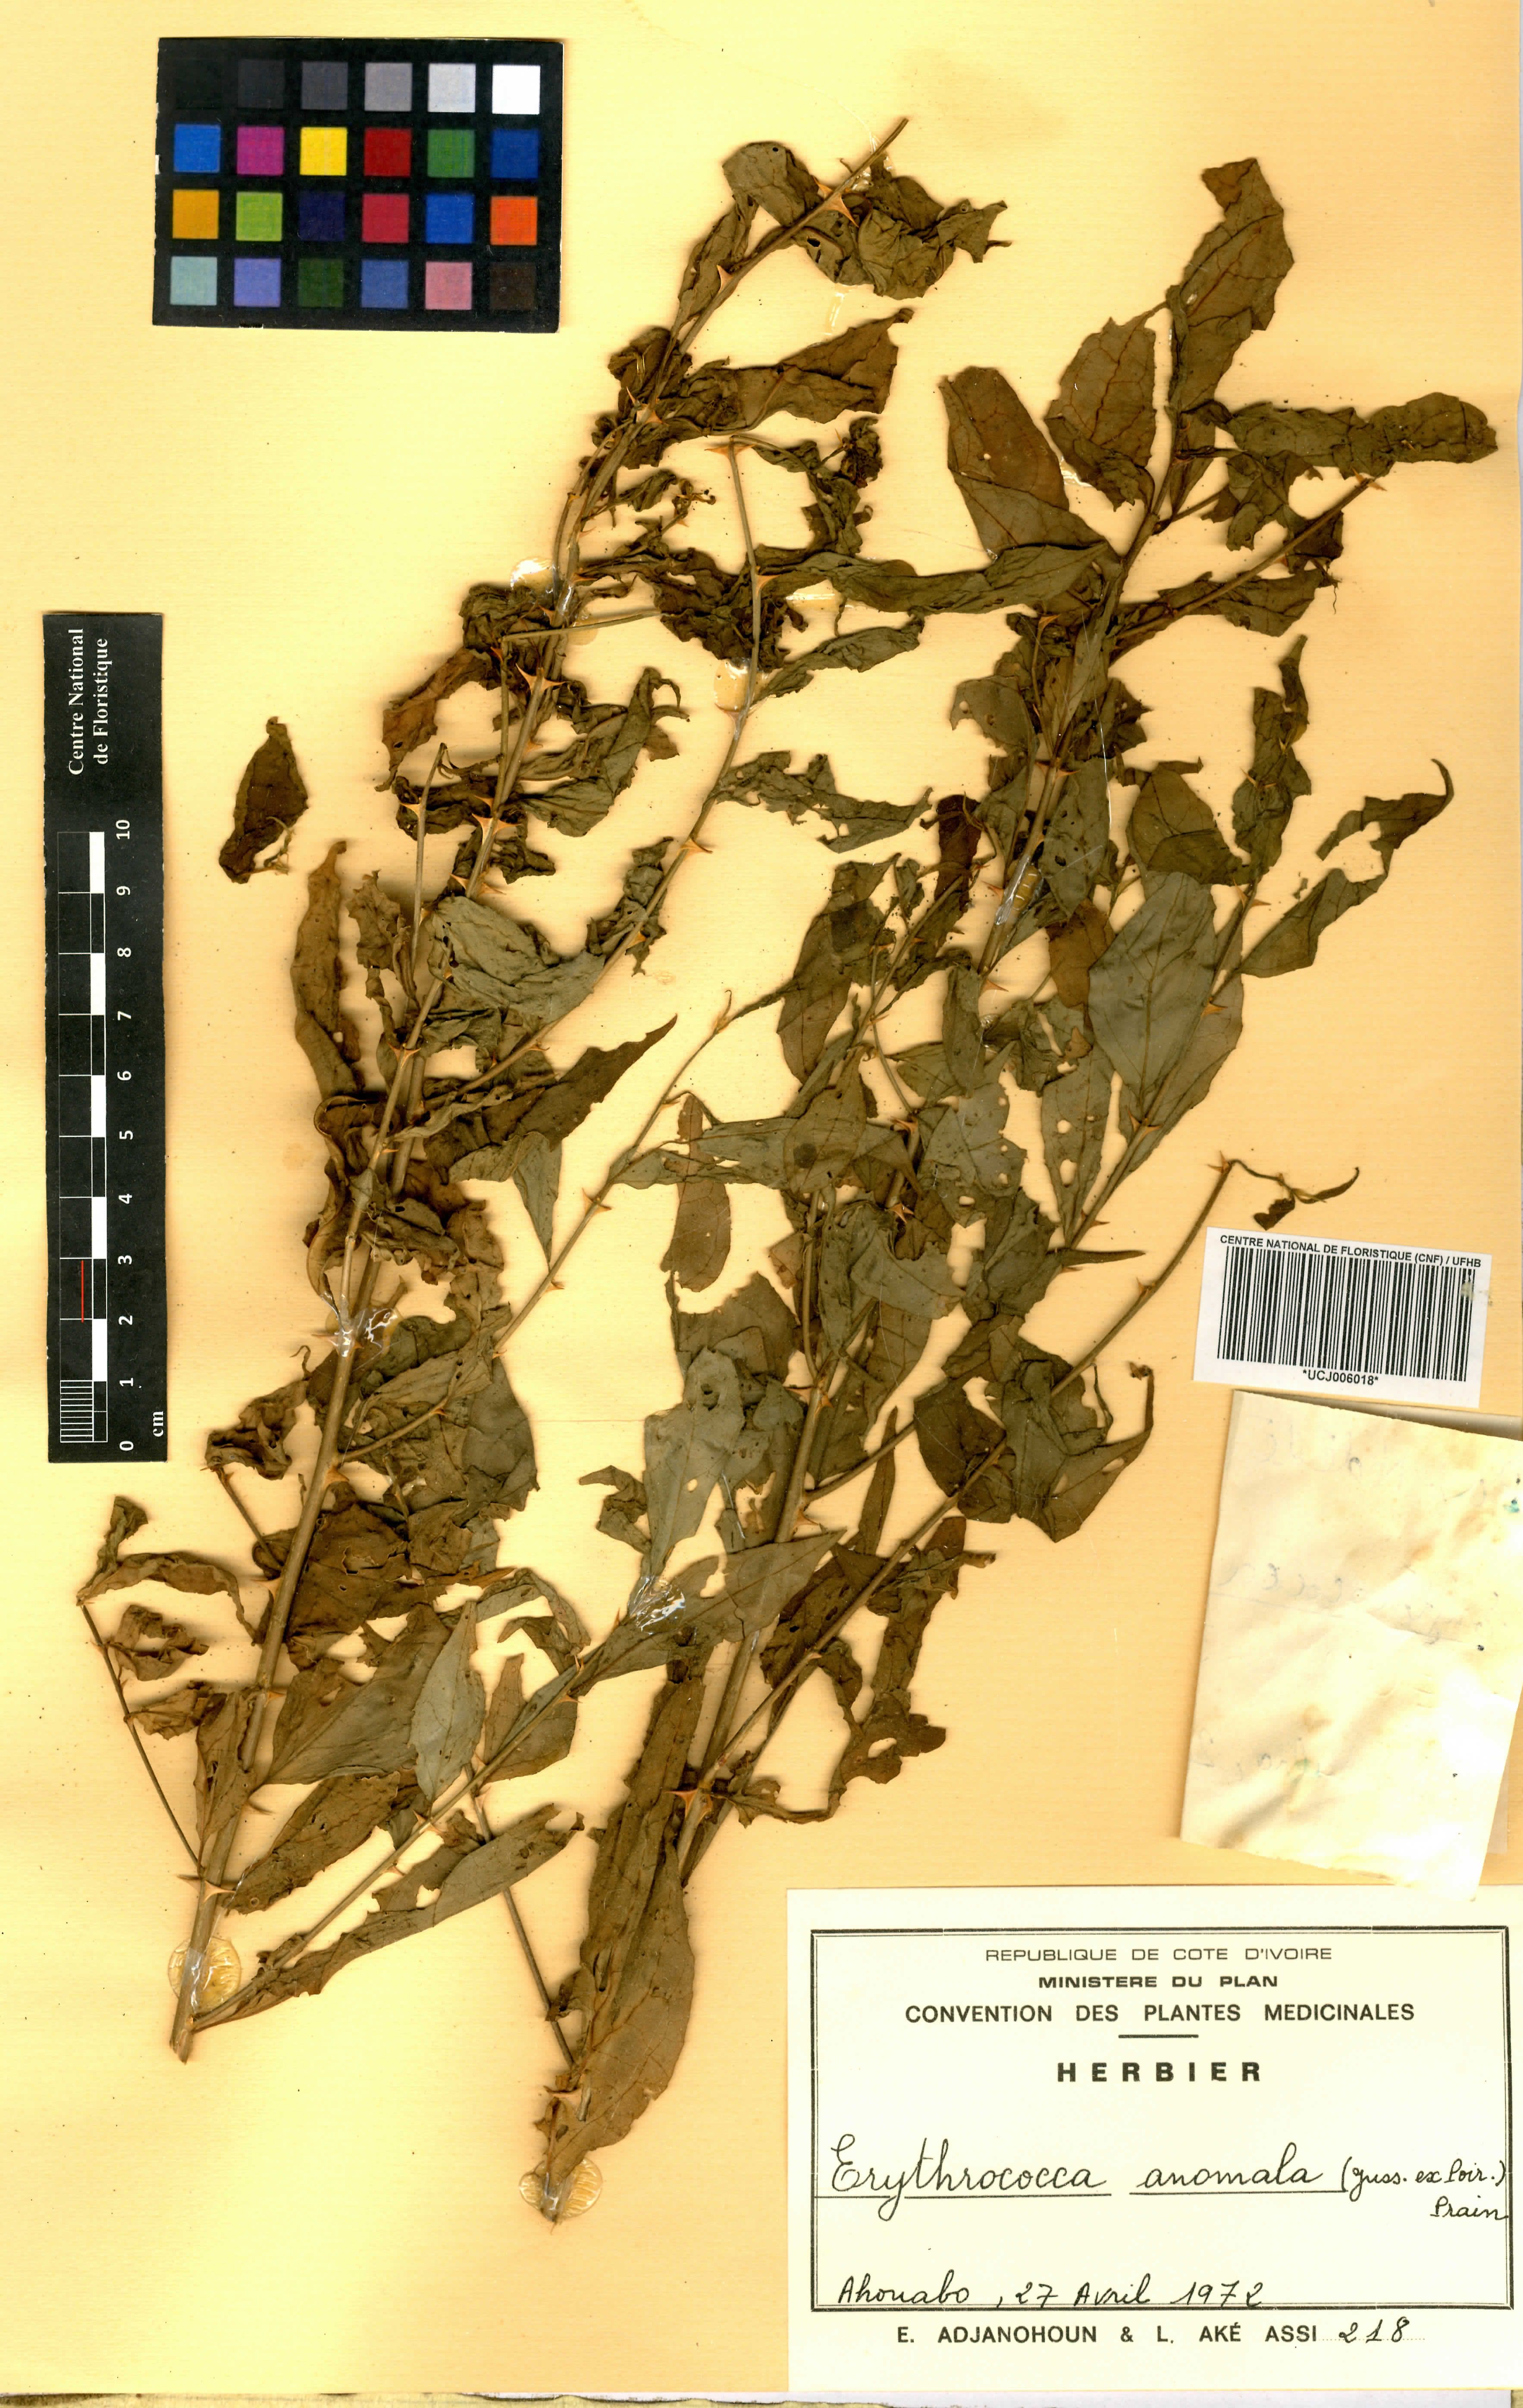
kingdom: Plantae
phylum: Tracheophyta
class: Magnoliopsida
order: Malpighiales
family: Euphorbiaceae
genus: Erythrococca
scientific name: Erythrococca anomala
